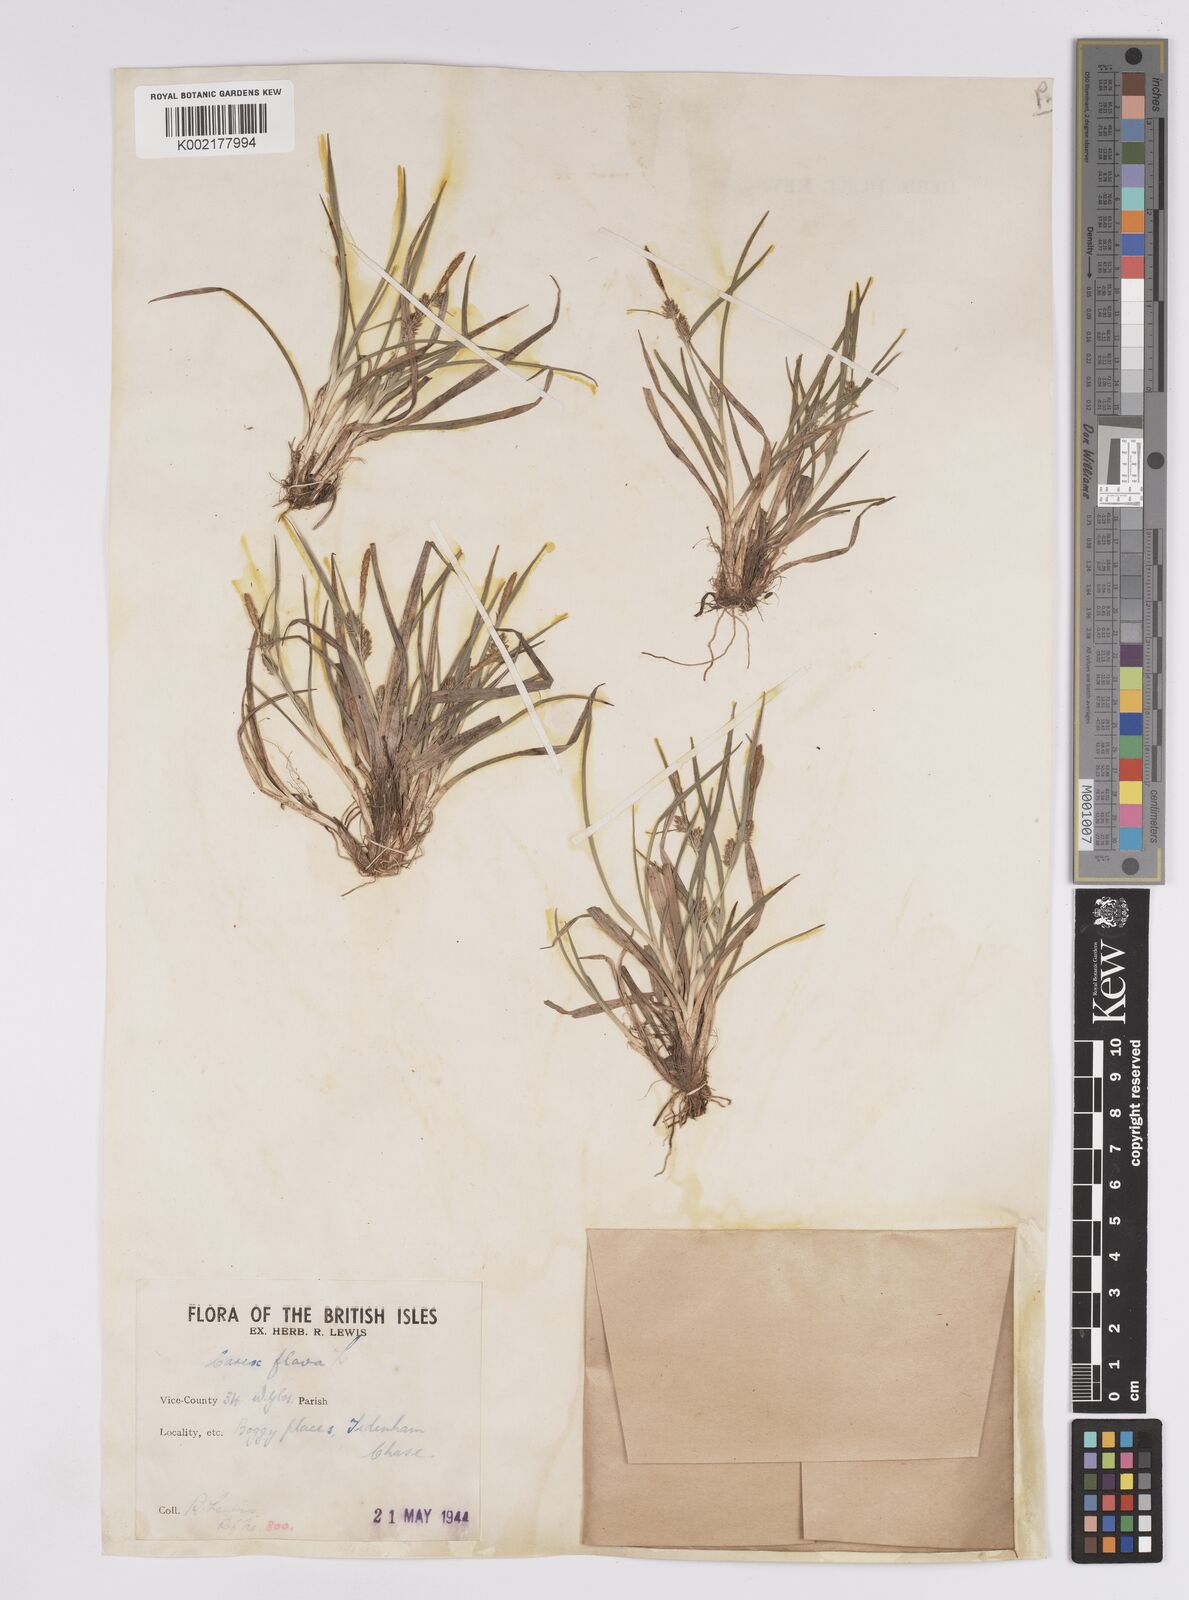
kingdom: Plantae
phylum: Tracheophyta
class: Liliopsida
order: Poales
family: Cyperaceae
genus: Carex
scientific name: Carex demissa
